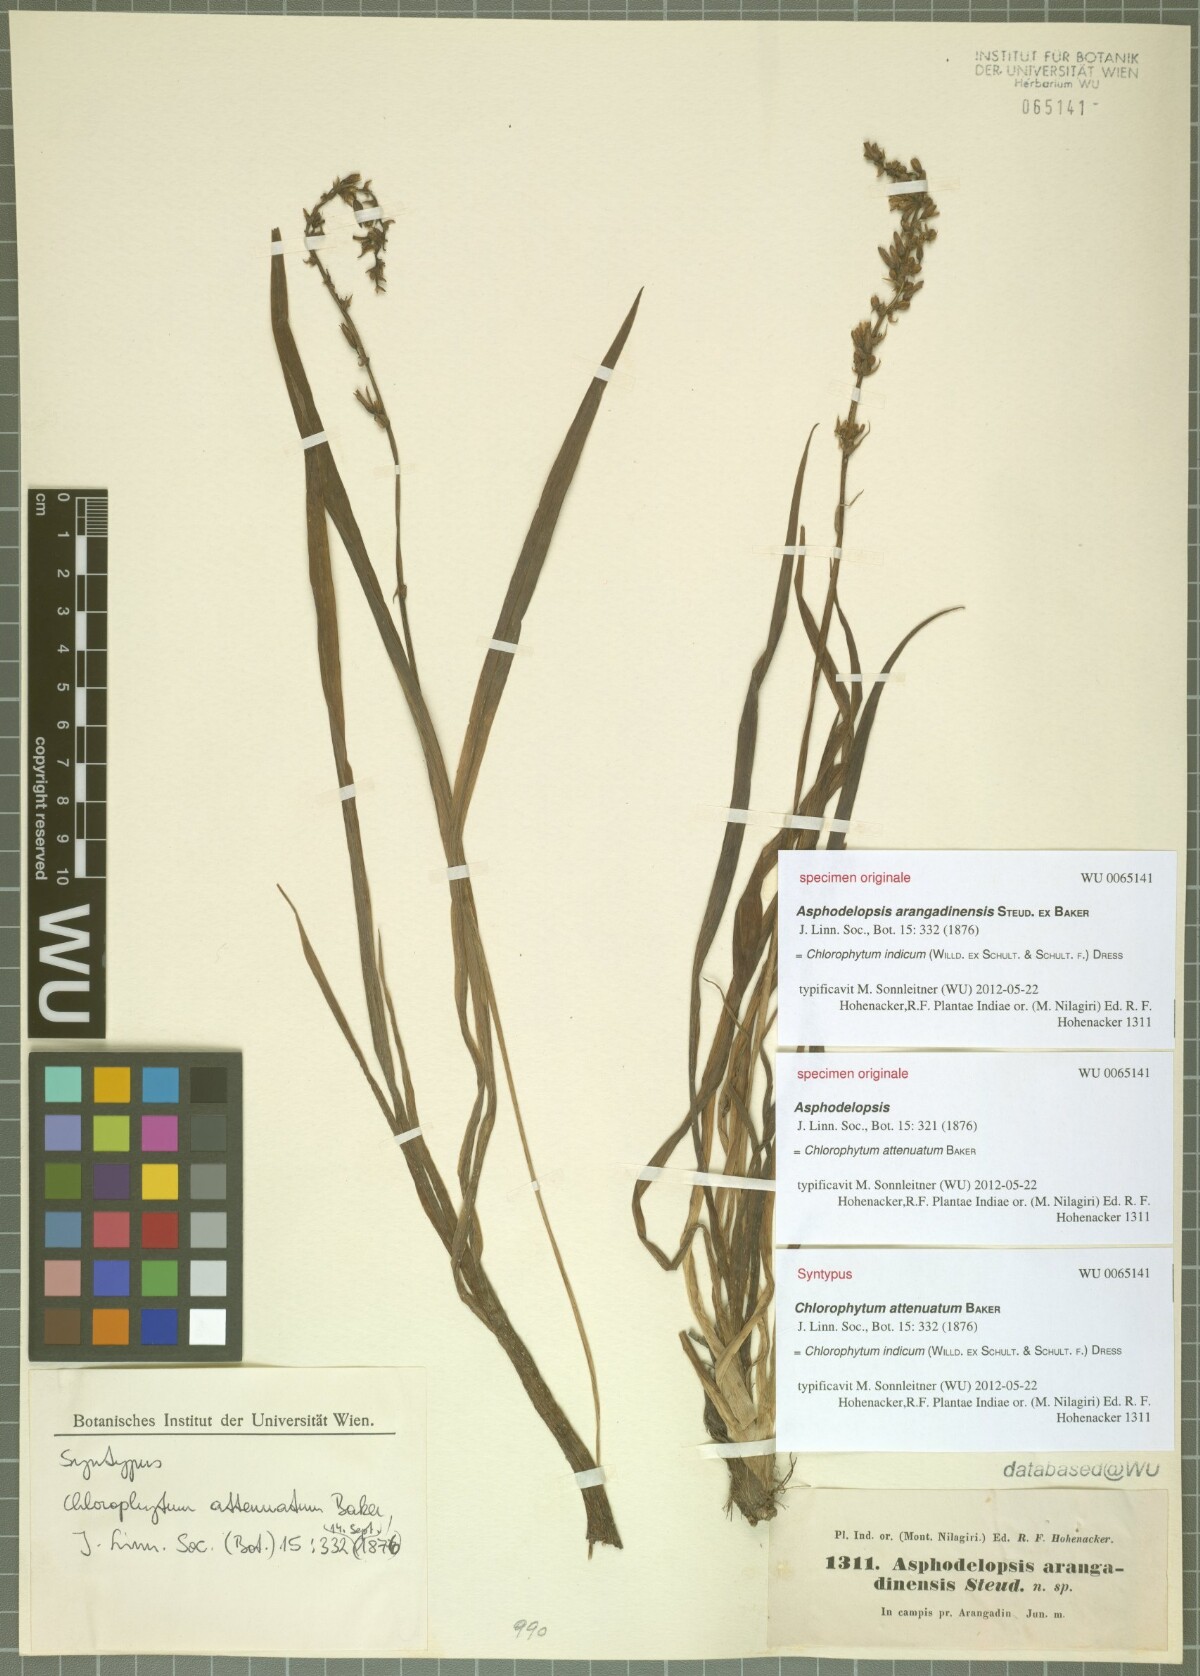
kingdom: Plantae
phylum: Tracheophyta
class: Liliopsida
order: Asparagales
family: Asparagaceae
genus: Chlorophytum
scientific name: Chlorophytum indicum
